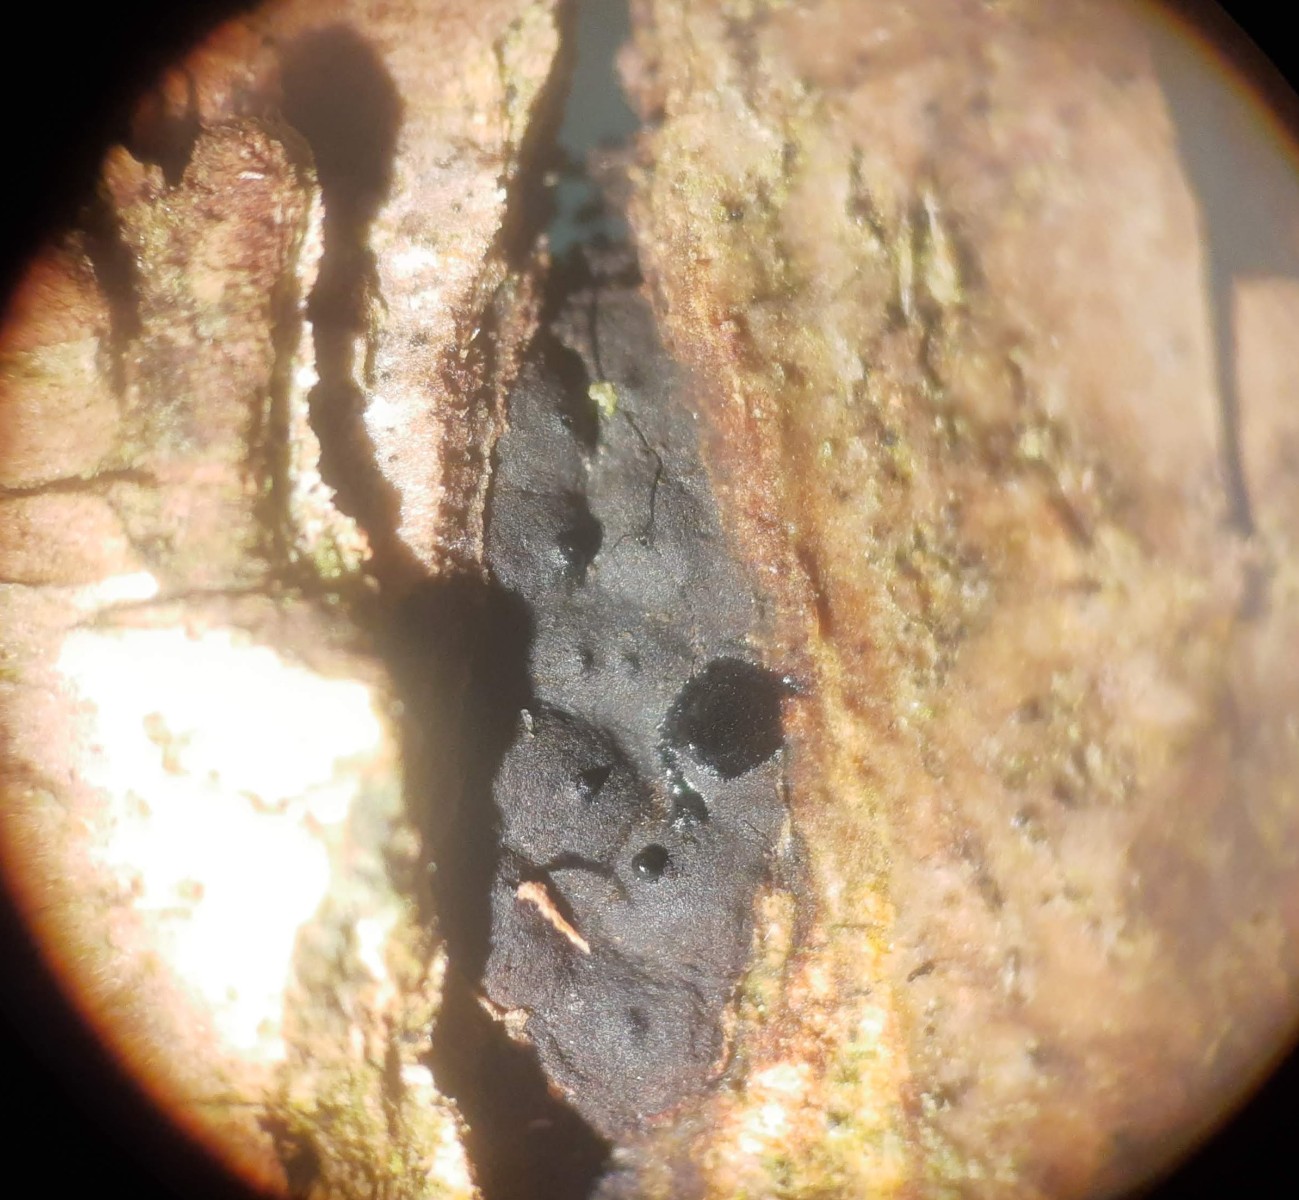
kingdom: Fungi
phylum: Ascomycota
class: Sordariomycetes
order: Xylariales
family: Xylariaceae
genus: Entoleuca
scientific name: Entoleuca mammata
